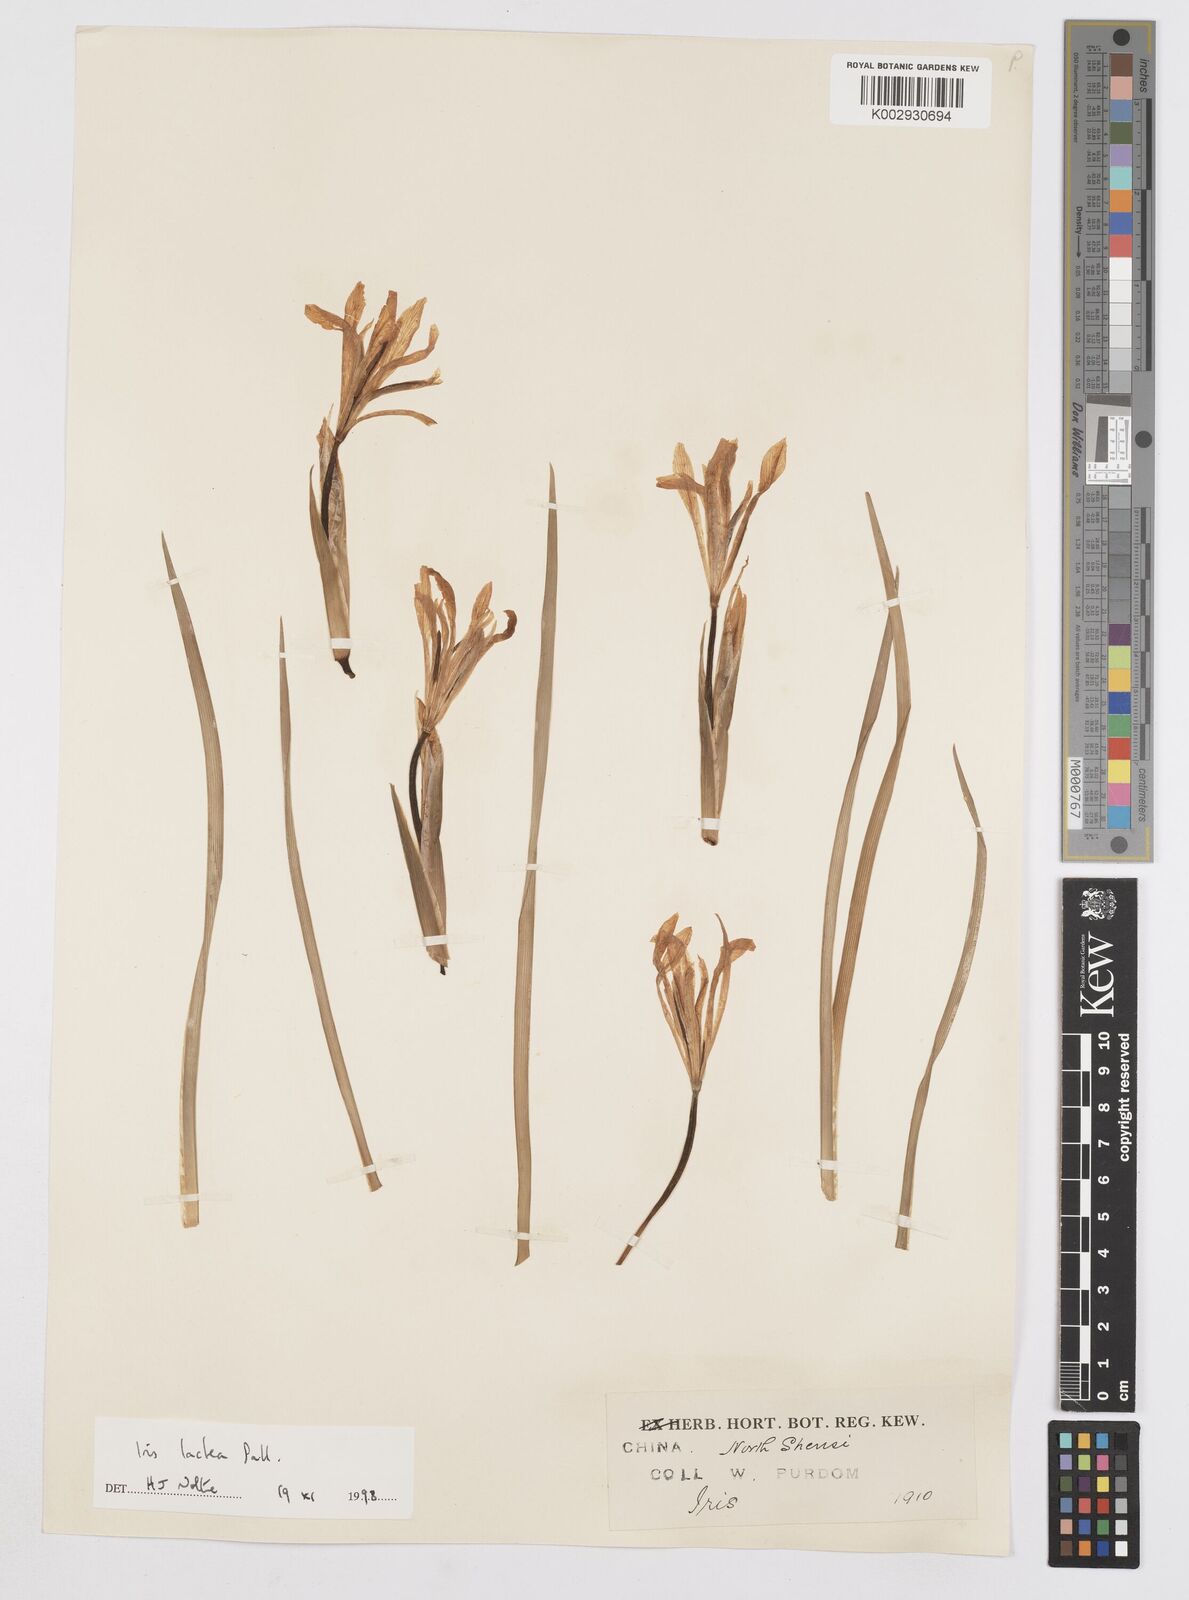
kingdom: Plantae
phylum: Tracheophyta
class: Liliopsida
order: Asparagales
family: Iridaceae
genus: Iris
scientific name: Iris ensata
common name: Beaked iris
